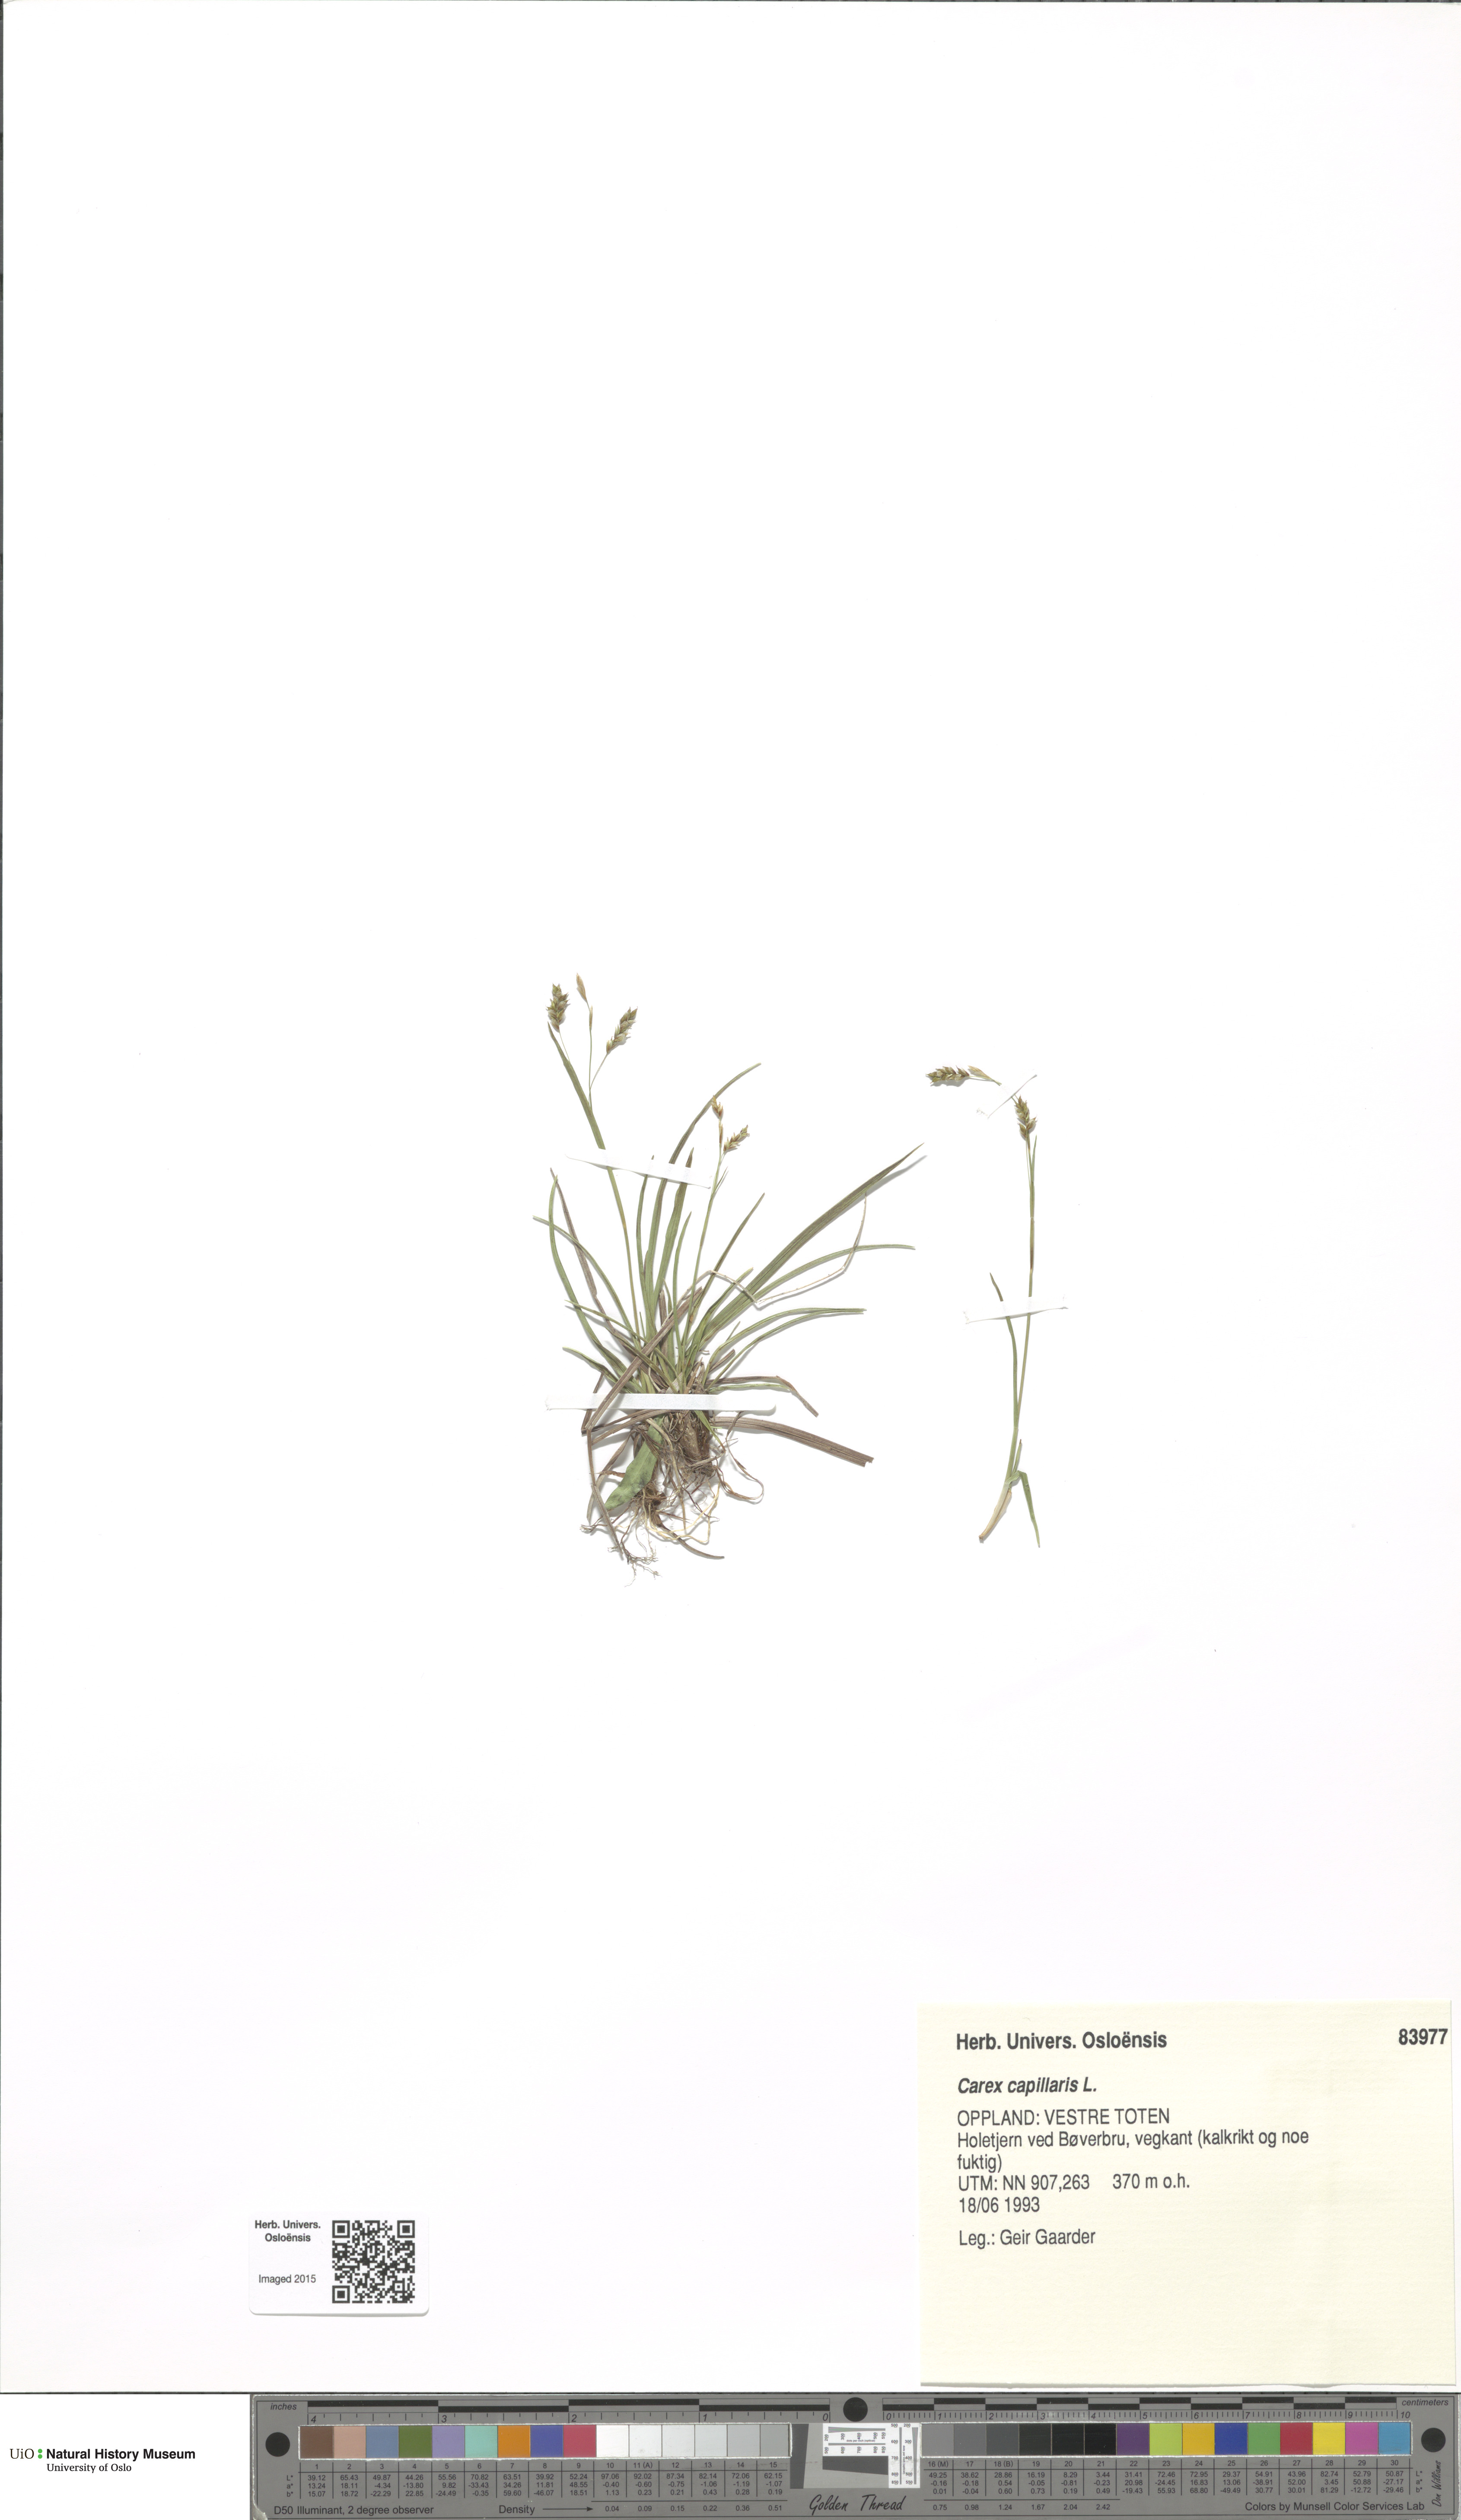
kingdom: Plantae
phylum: Tracheophyta
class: Liliopsida
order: Poales
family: Cyperaceae
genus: Carex
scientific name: Carex capillaris
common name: Hair sedge
